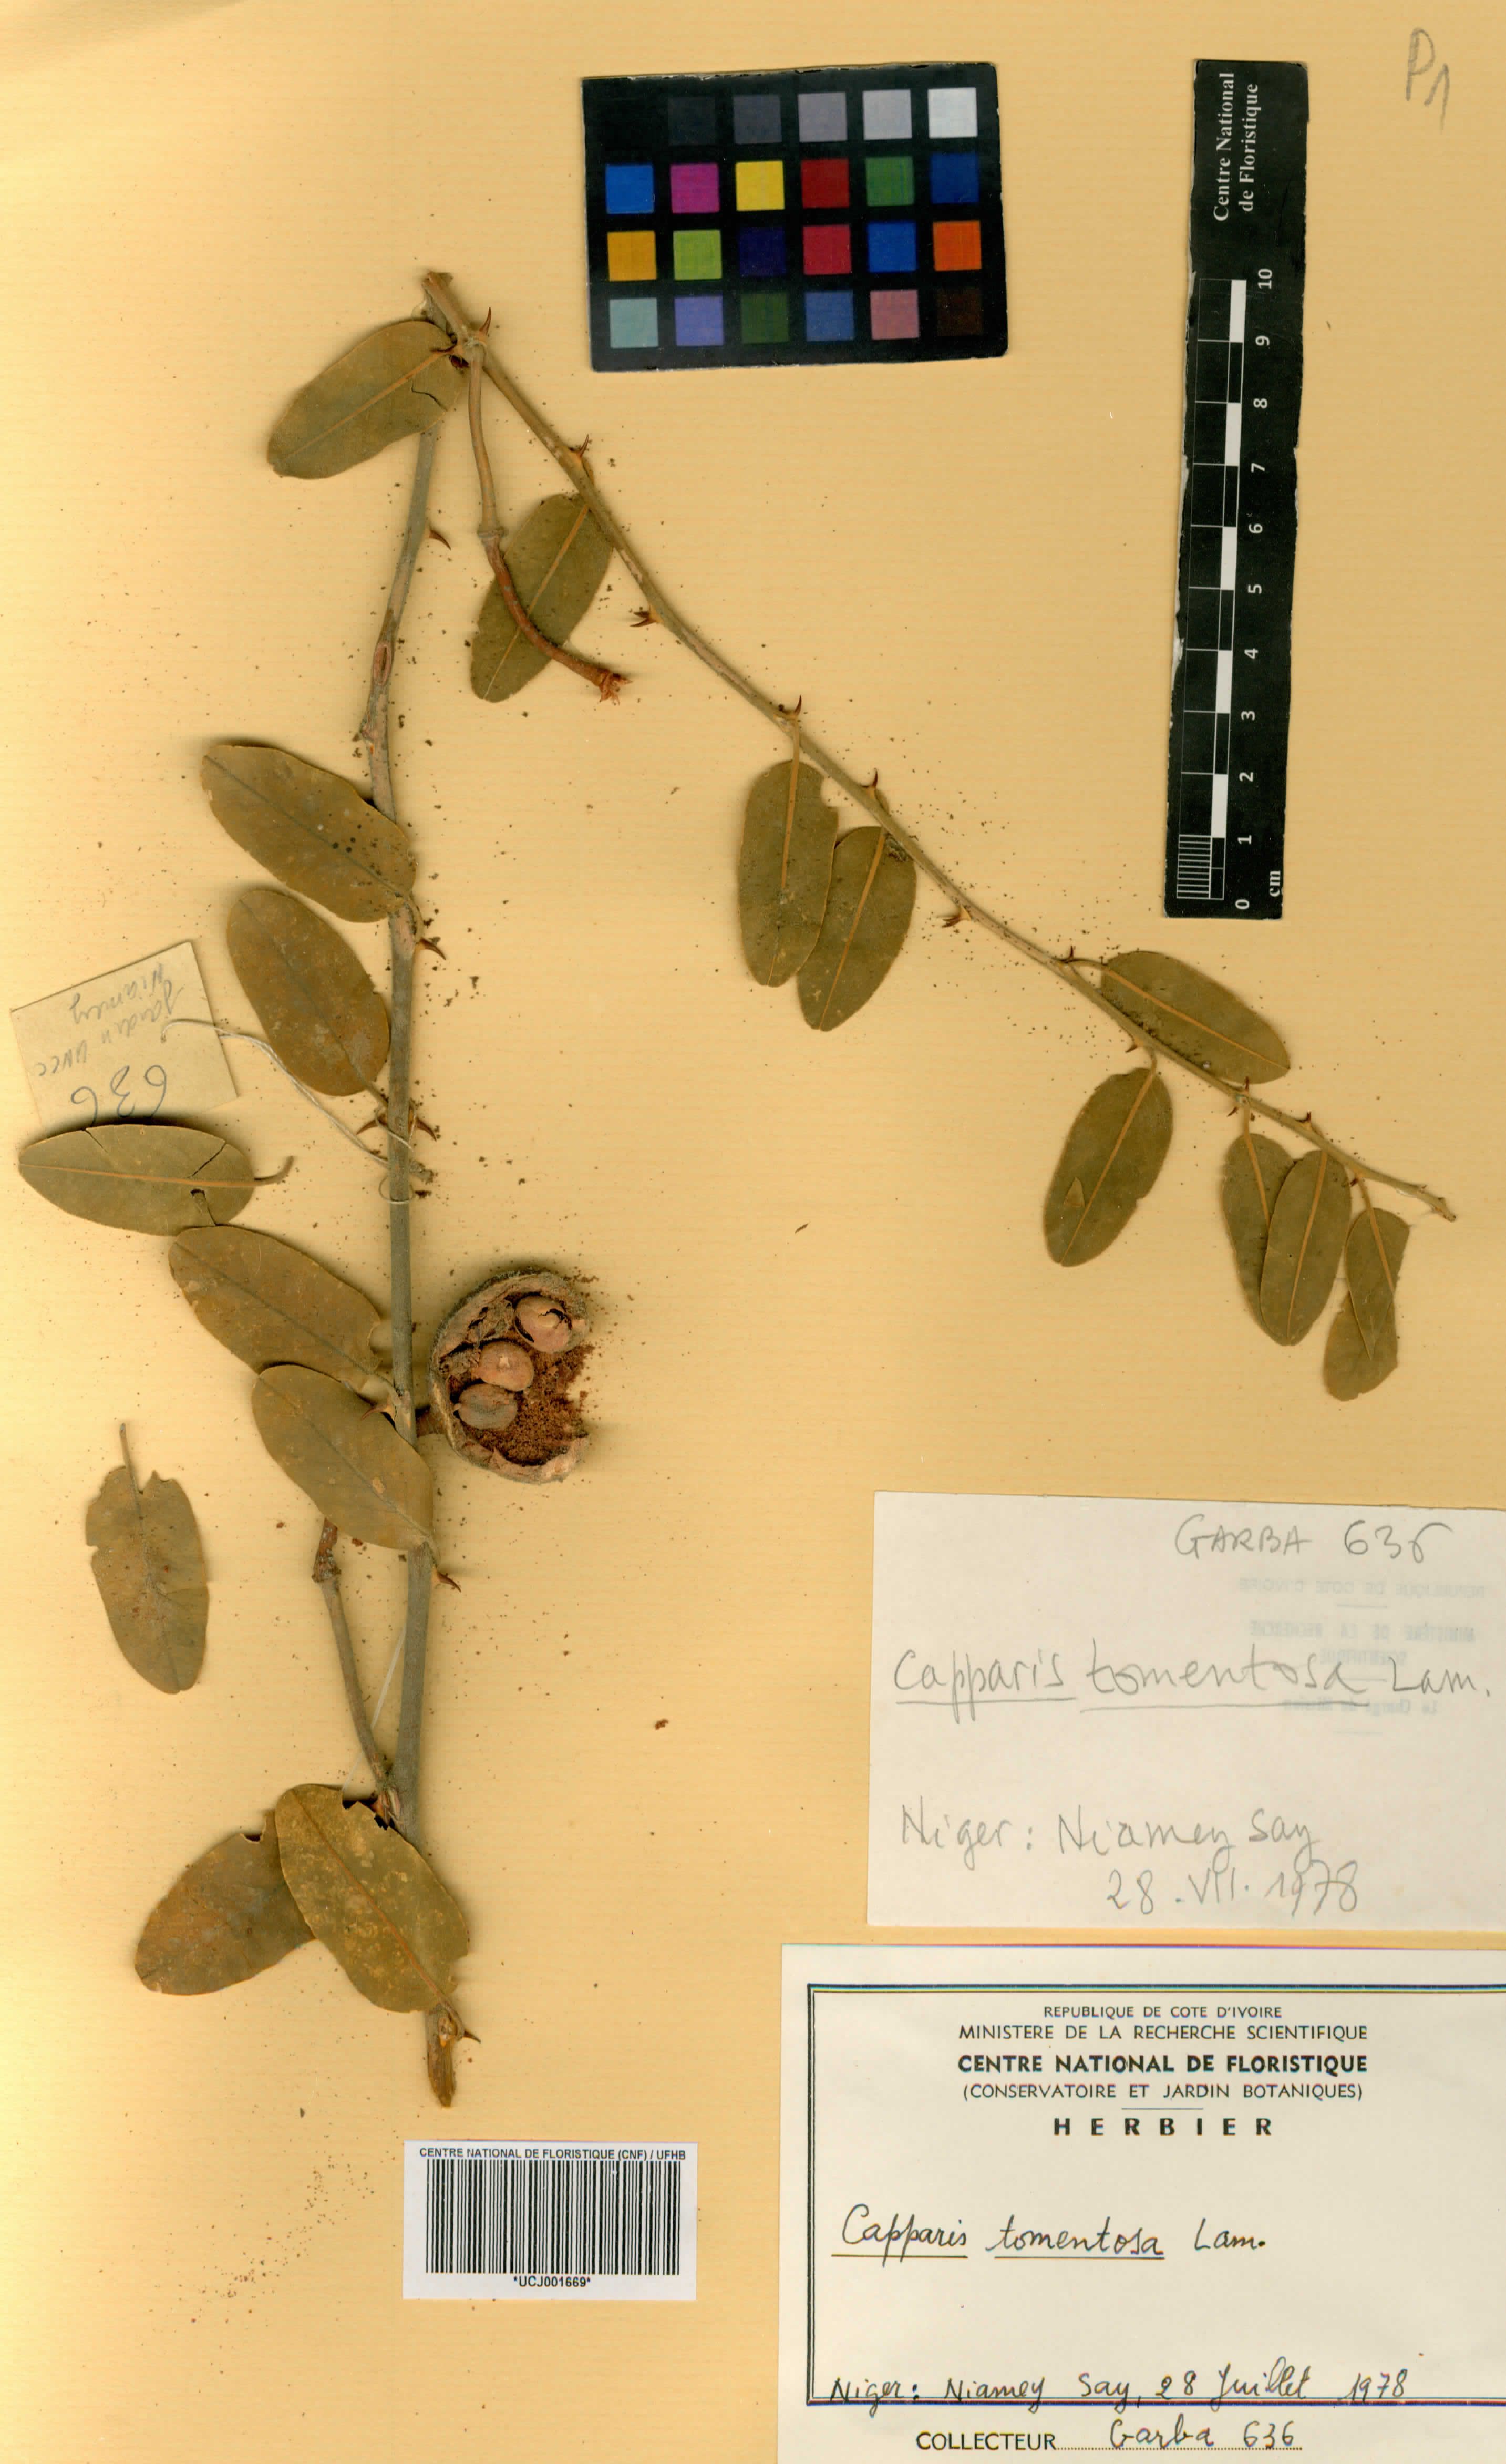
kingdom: Plantae
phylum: Tracheophyta
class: Magnoliopsida
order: Brassicales
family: Capparaceae
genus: Capparis
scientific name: Capparis tomentosa
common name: African caper
